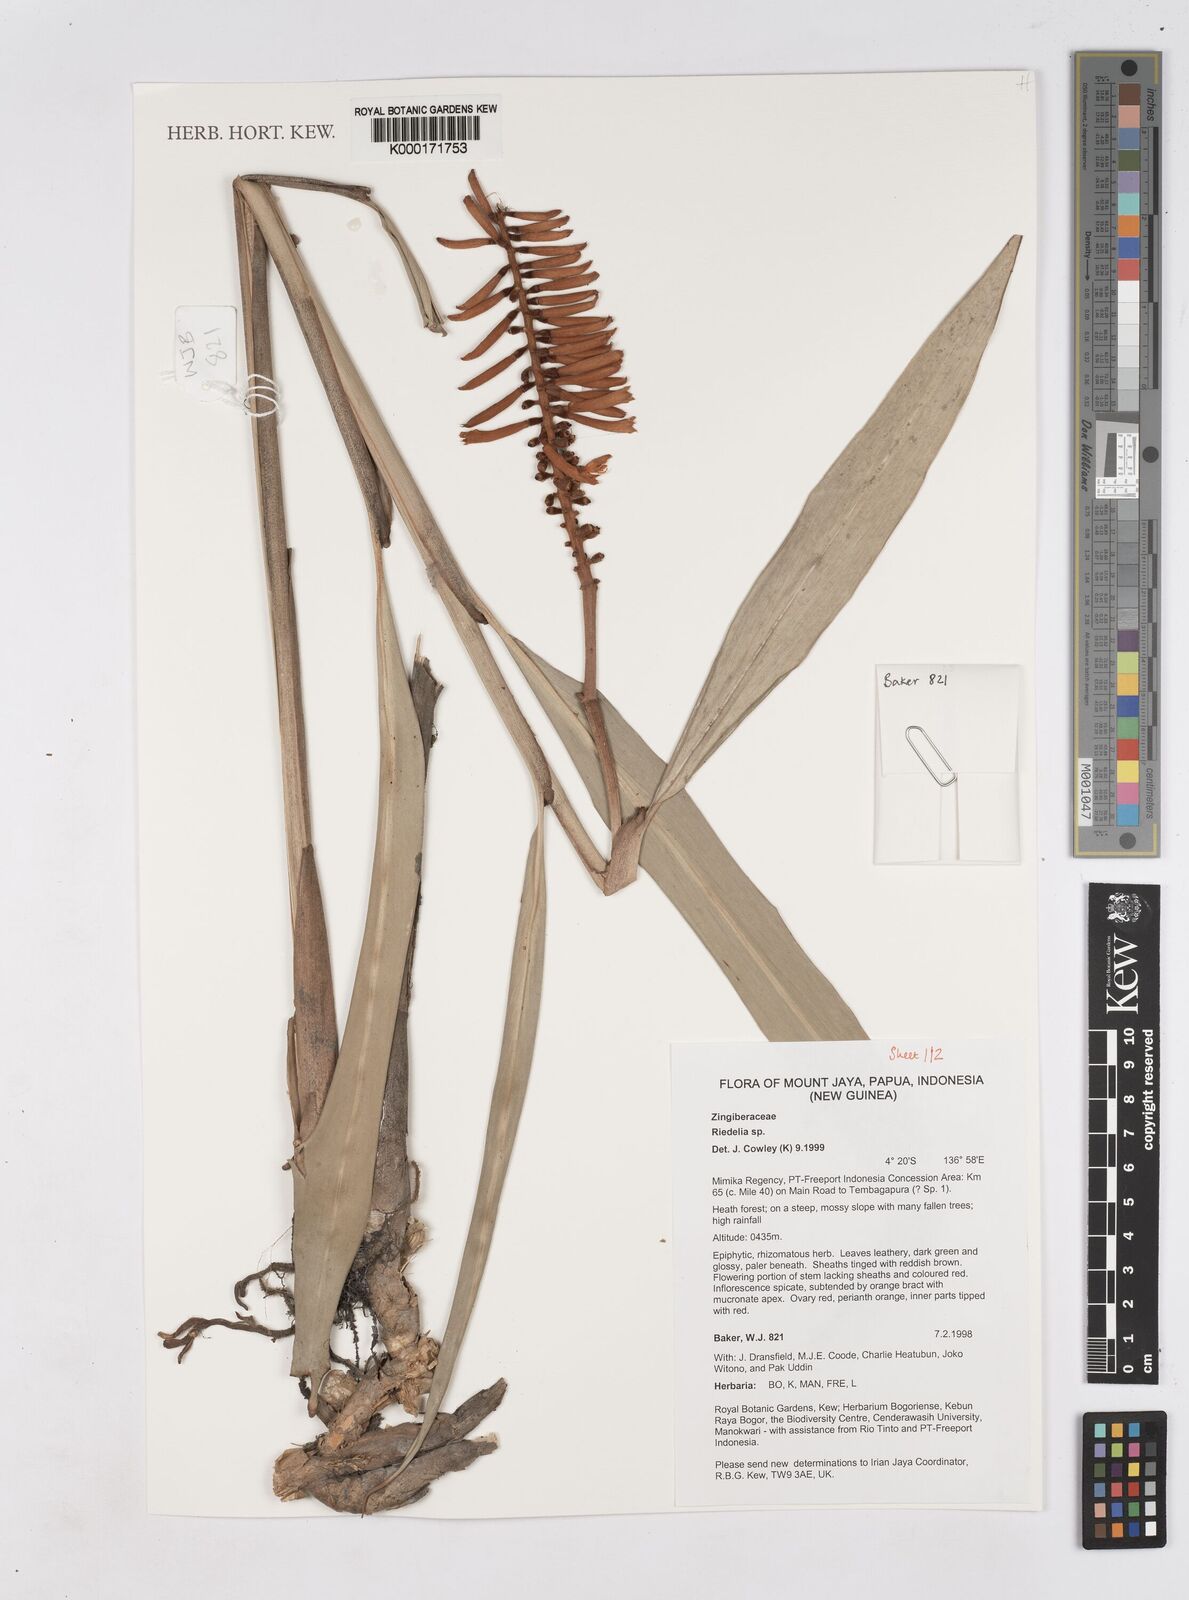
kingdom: Plantae
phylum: Tracheophyta
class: Liliopsida
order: Zingiberales
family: Zingiberaceae
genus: Riedelia
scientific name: Riedelia
